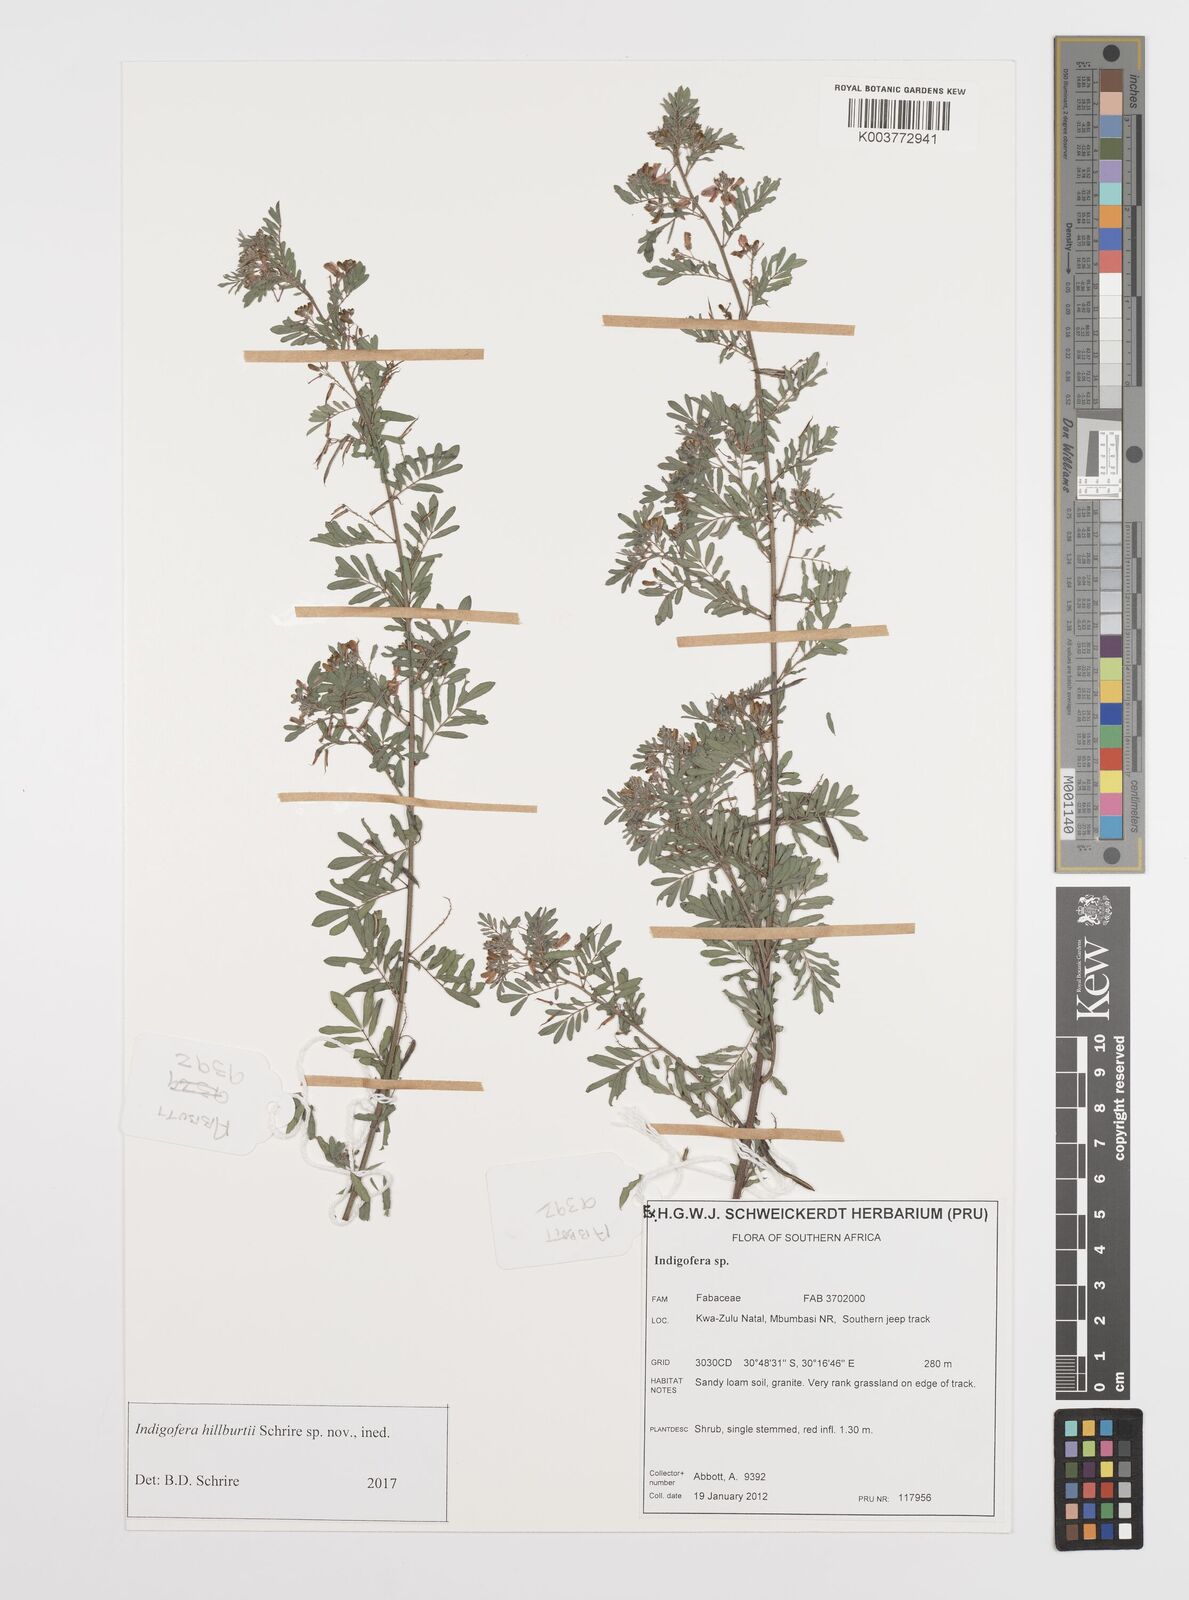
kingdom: Plantae
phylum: Tracheophyta
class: Magnoliopsida
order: Fabales
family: Fabaceae
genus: Indigofera
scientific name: Indigofera
